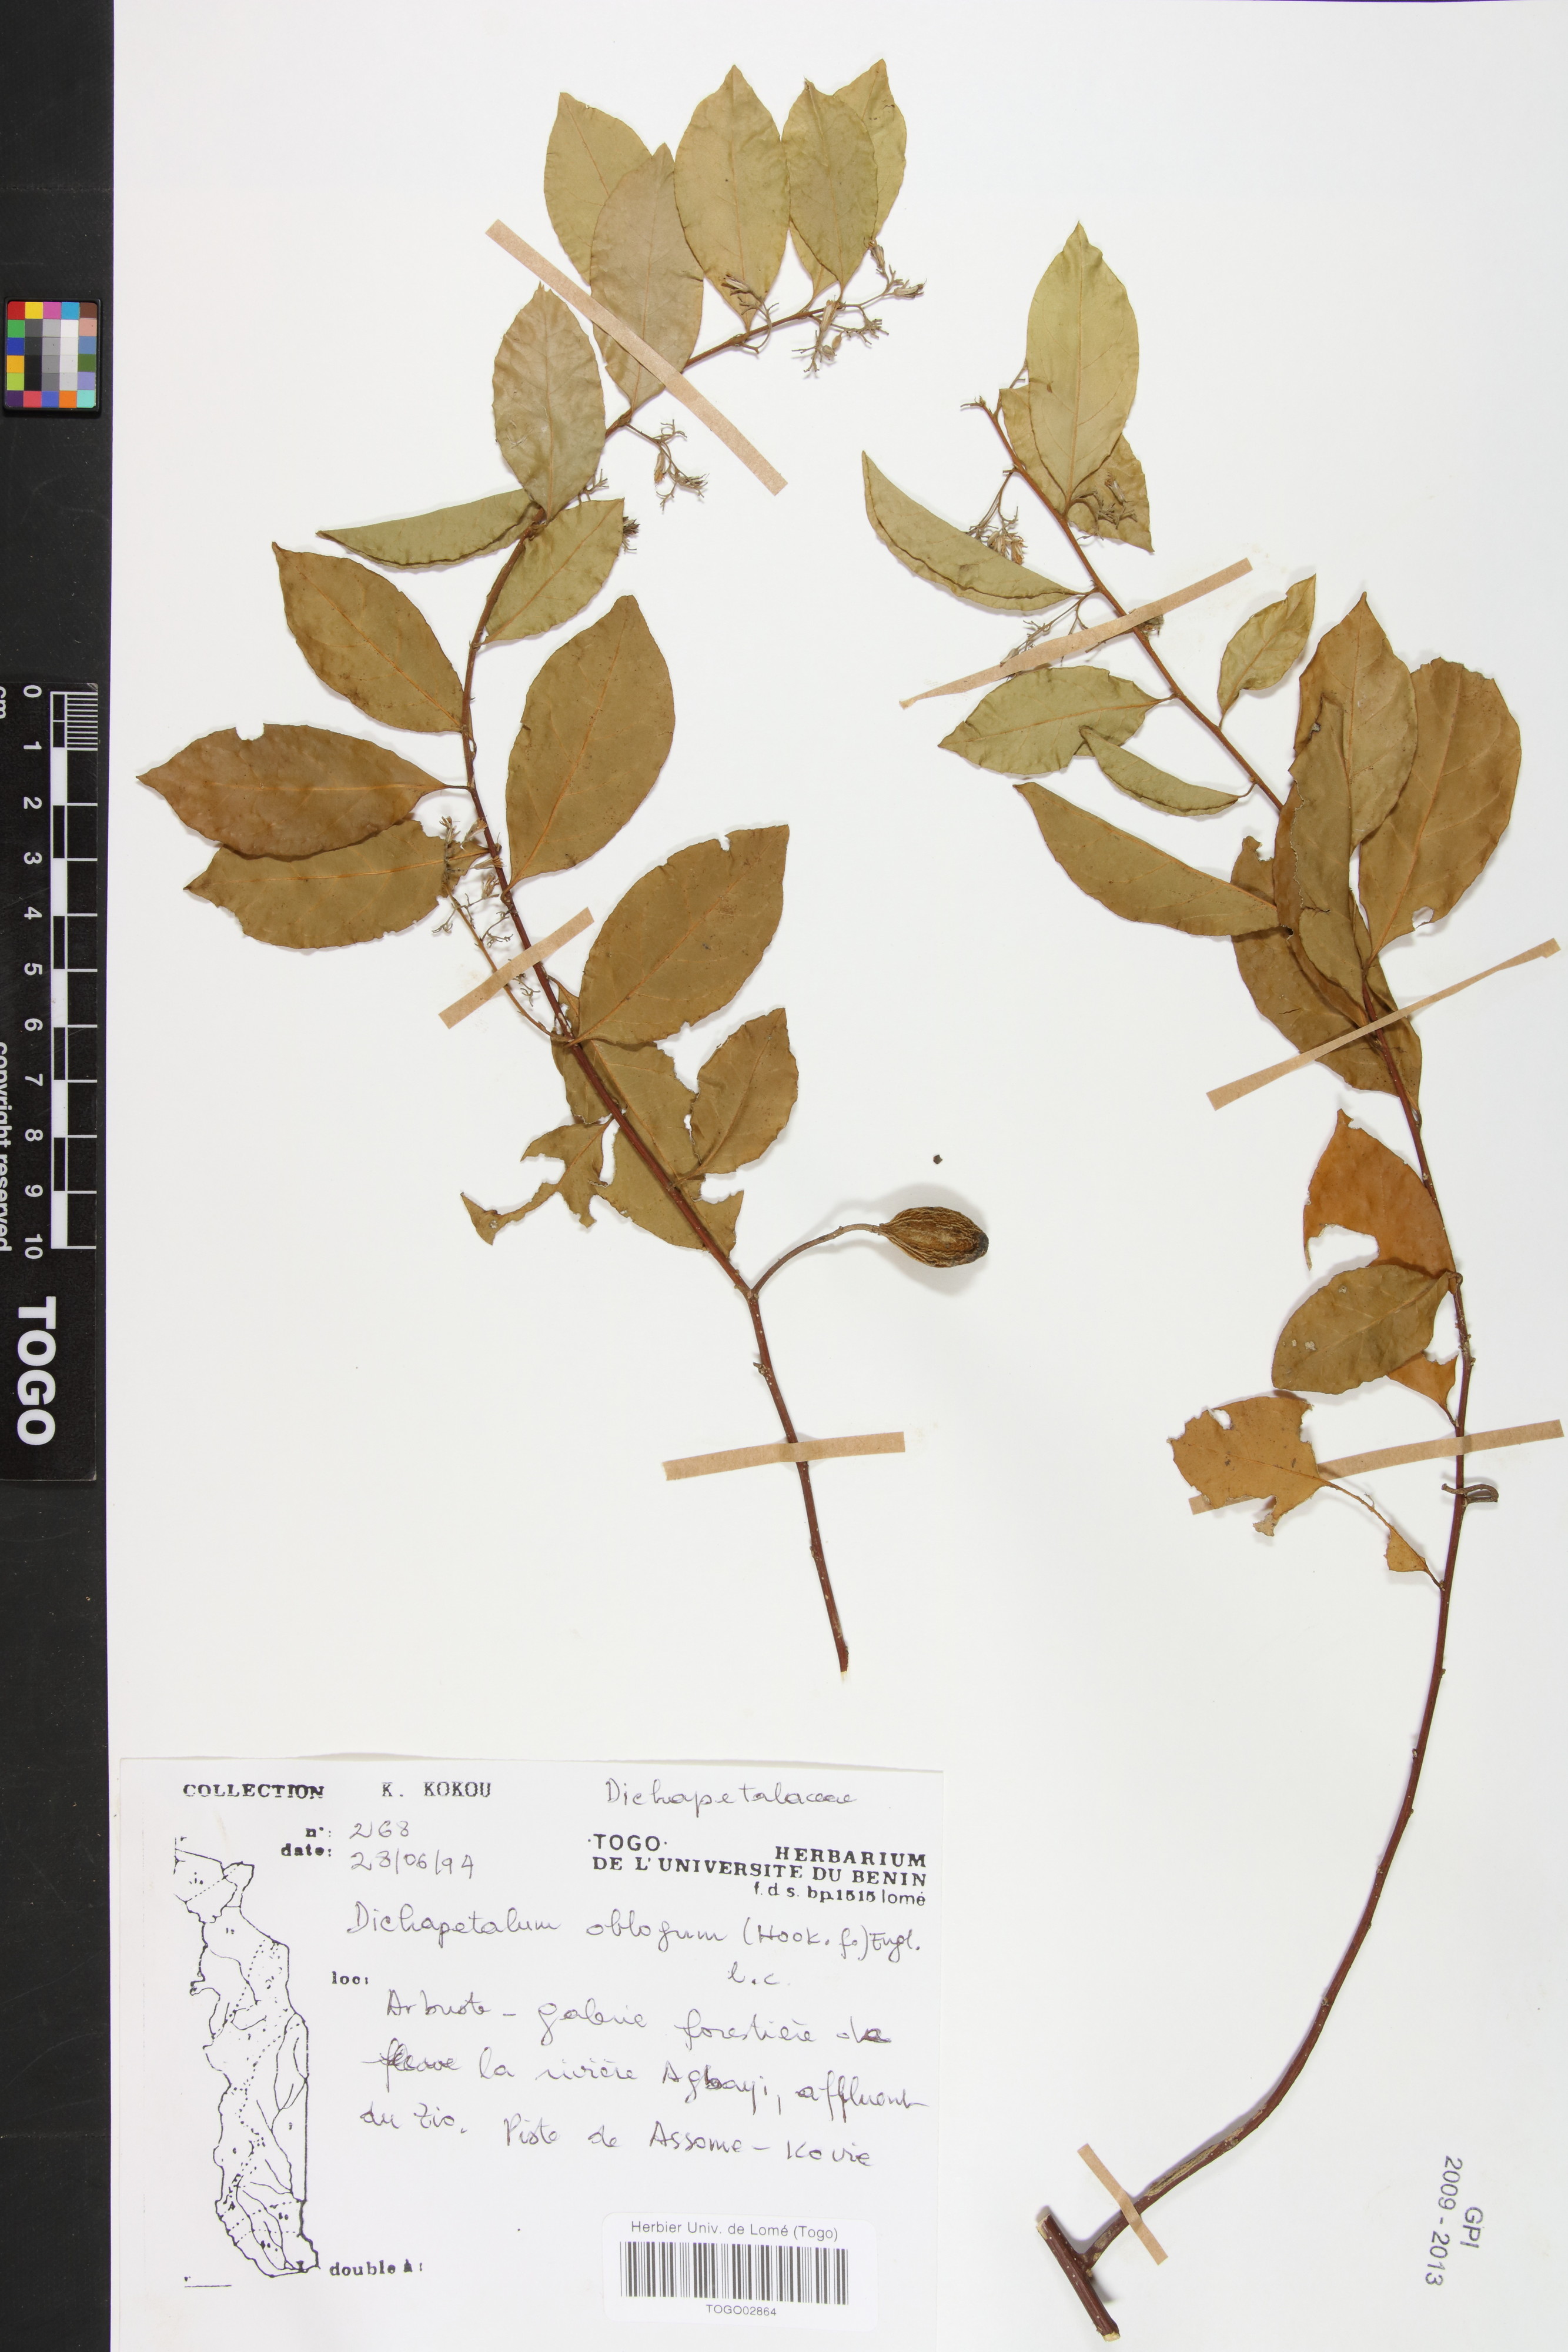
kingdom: Plantae
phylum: Tracheophyta
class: Magnoliopsida
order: Malpighiales
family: Dichapetalaceae
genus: Dichapetalum
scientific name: Dichapetalum oblongum
